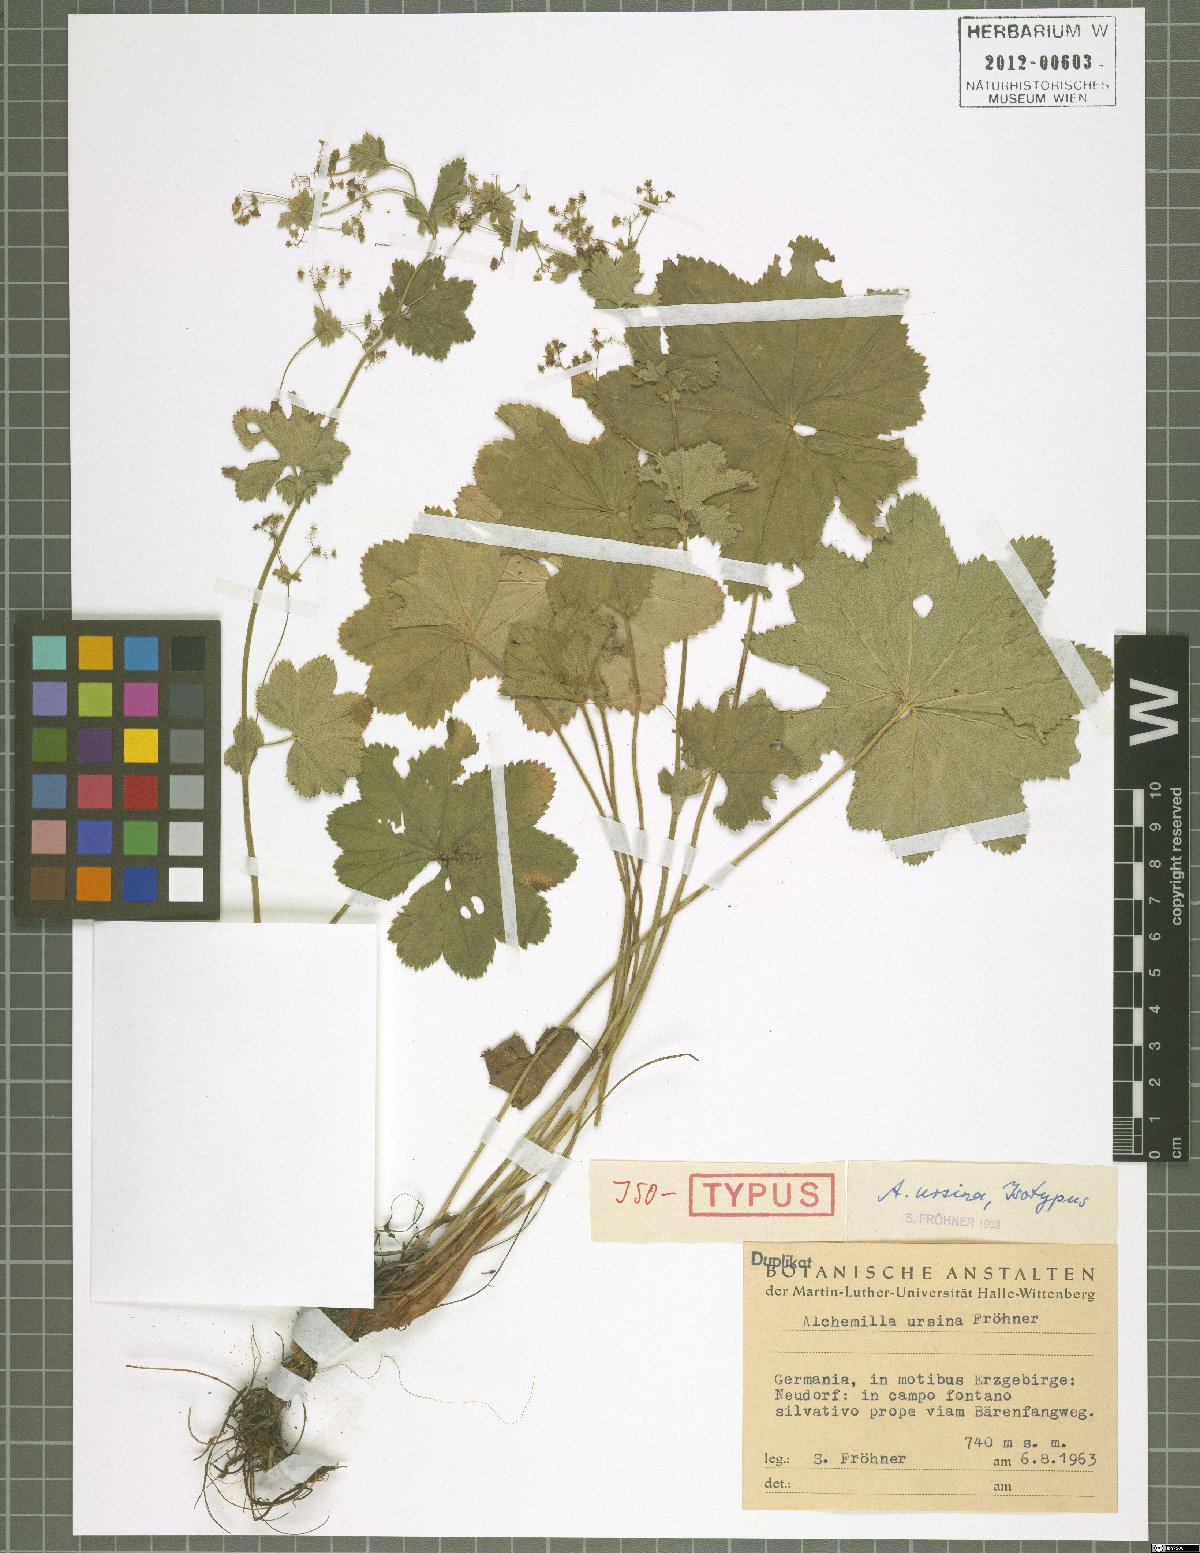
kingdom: Plantae
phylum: Tracheophyta
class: Magnoliopsida
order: Rosales
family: Rosaceae
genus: Alchemilla
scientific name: Alchemilla effusa
